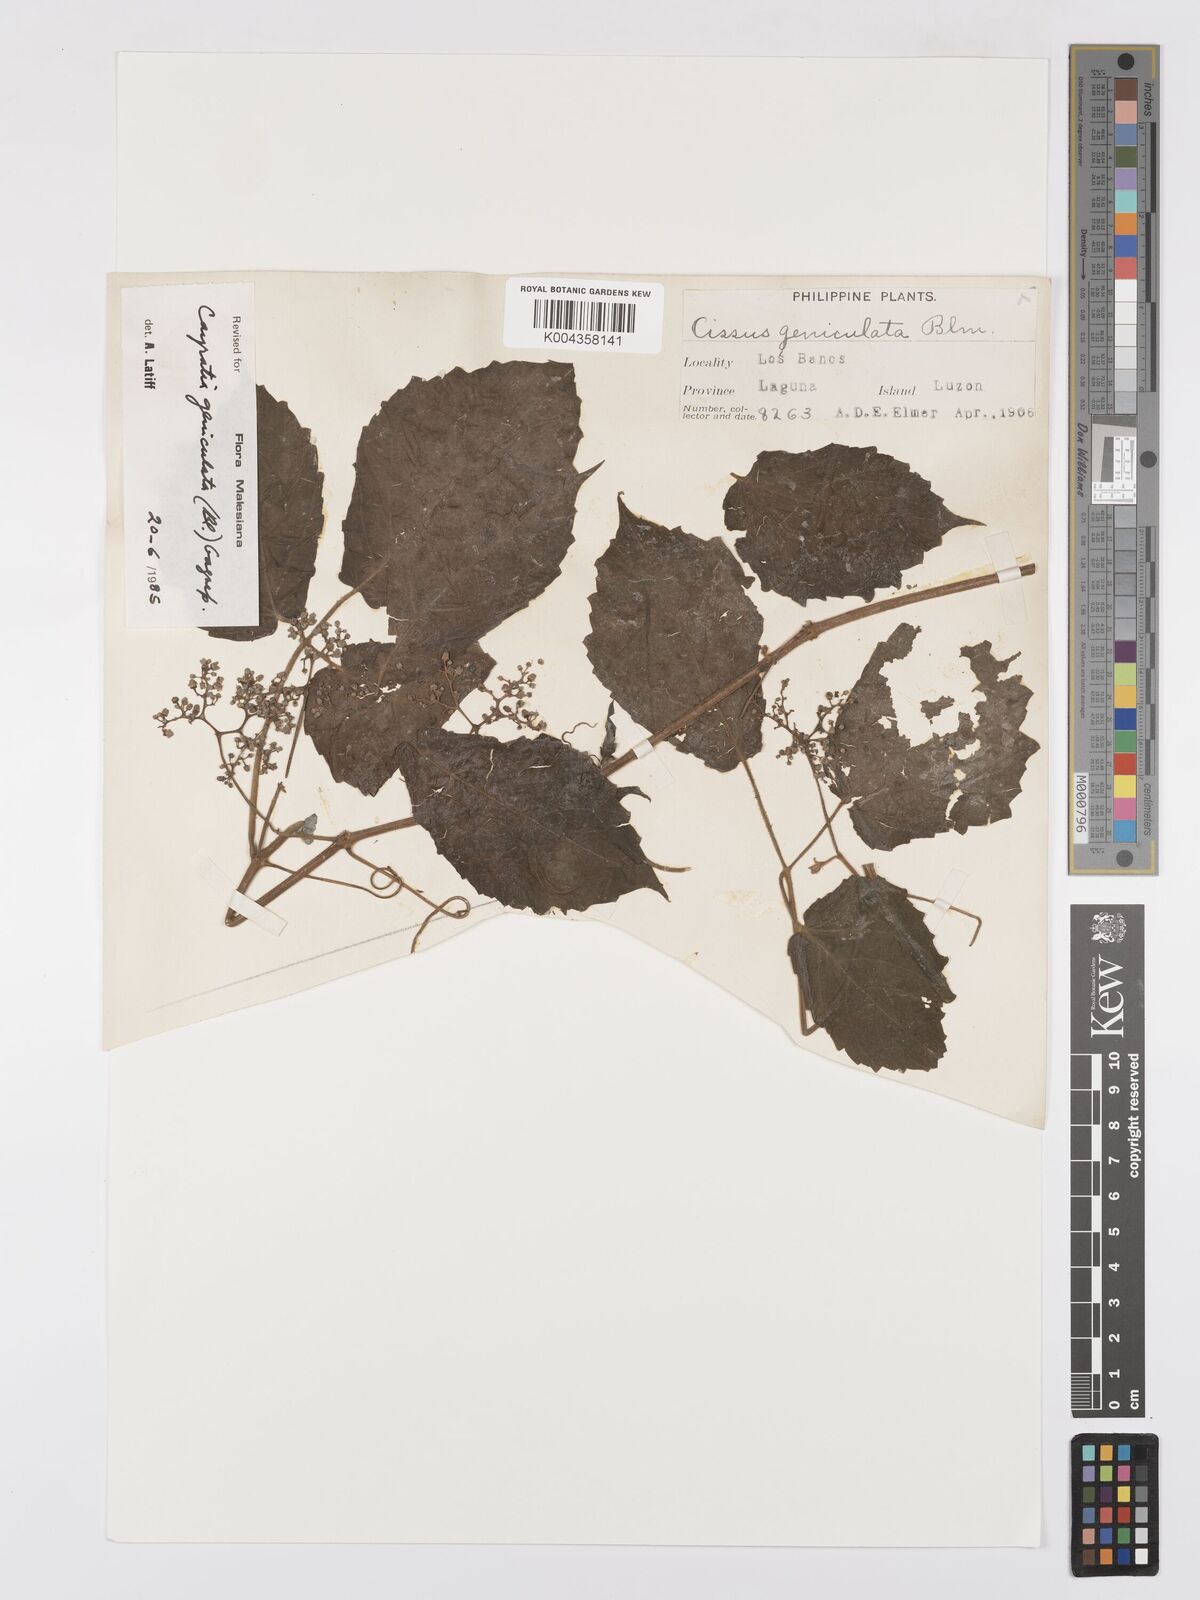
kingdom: Plantae
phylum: Tracheophyta
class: Magnoliopsida
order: Vitales
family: Vitaceae
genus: Cayratia
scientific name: Cayratia mollissima
